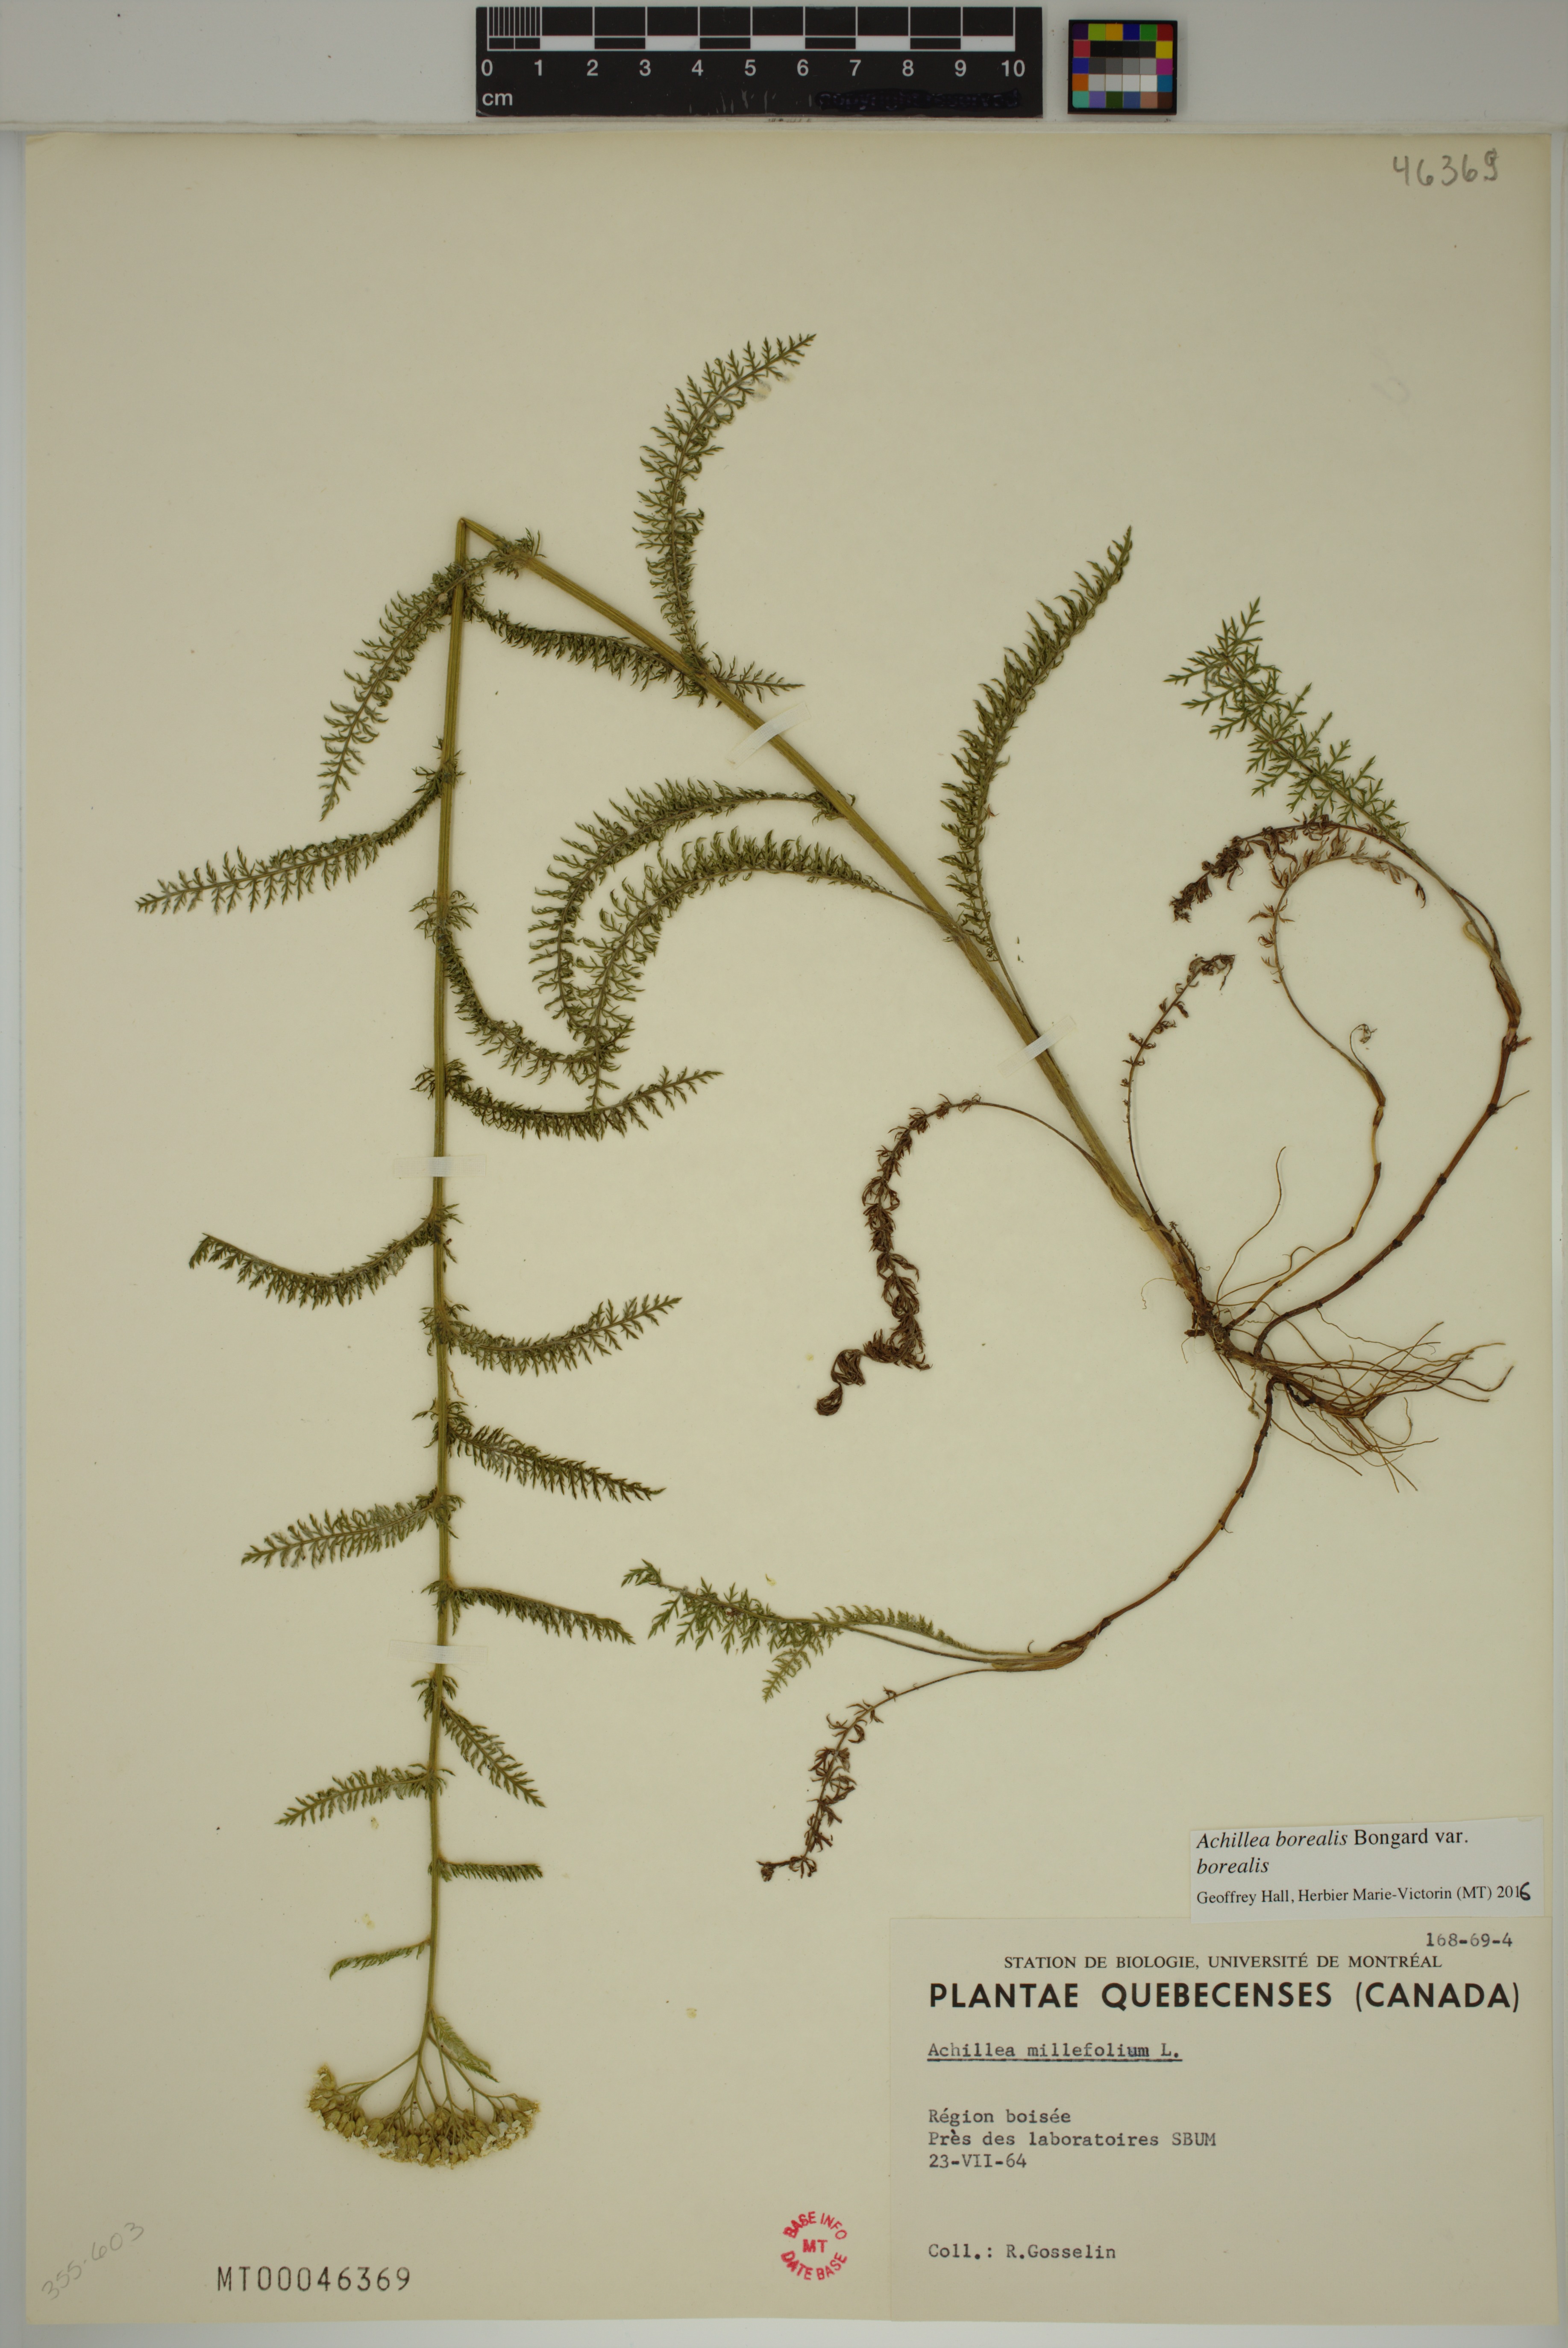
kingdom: Plantae
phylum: Tracheophyta
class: Magnoliopsida
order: Asterales
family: Asteraceae
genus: Achillea
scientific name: Achillea millefolium
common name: Yarrow
